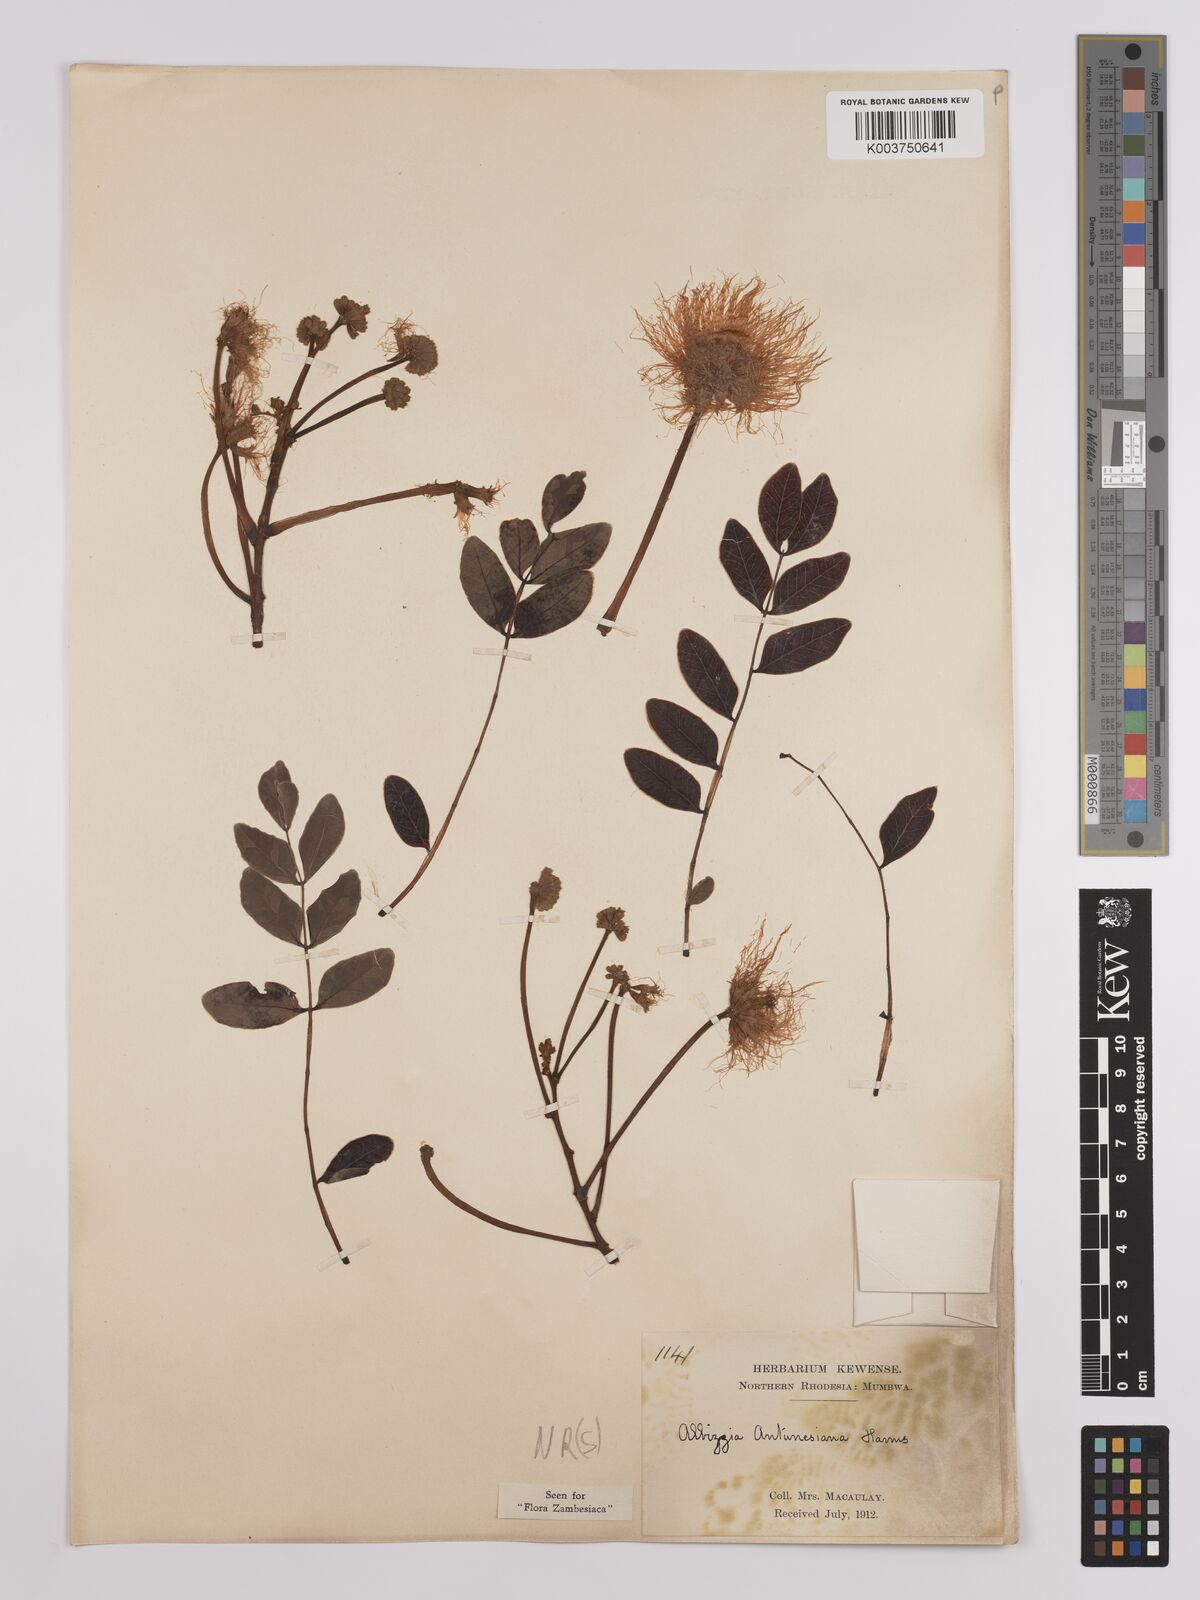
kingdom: Plantae
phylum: Tracheophyta
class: Magnoliopsida
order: Fabales
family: Fabaceae
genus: Albizia
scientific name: Albizia antunesiana
